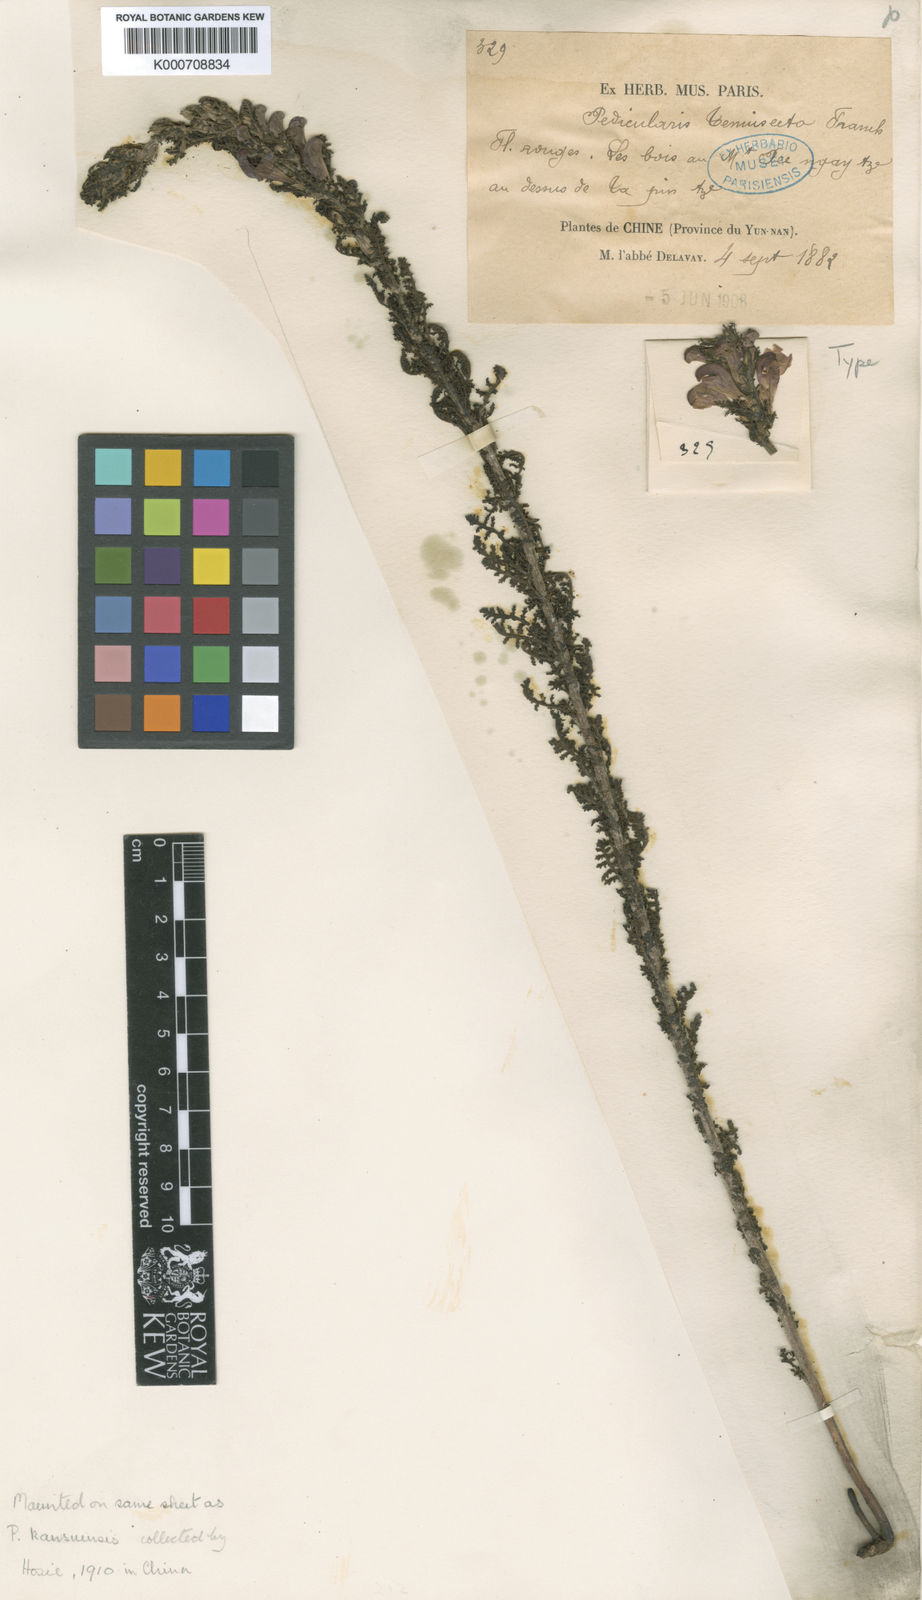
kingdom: Plantae
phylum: Tracheophyta
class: Magnoliopsida
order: Lamiales
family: Orobanchaceae
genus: Pedicularis
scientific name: Pedicularis tenuisecta
